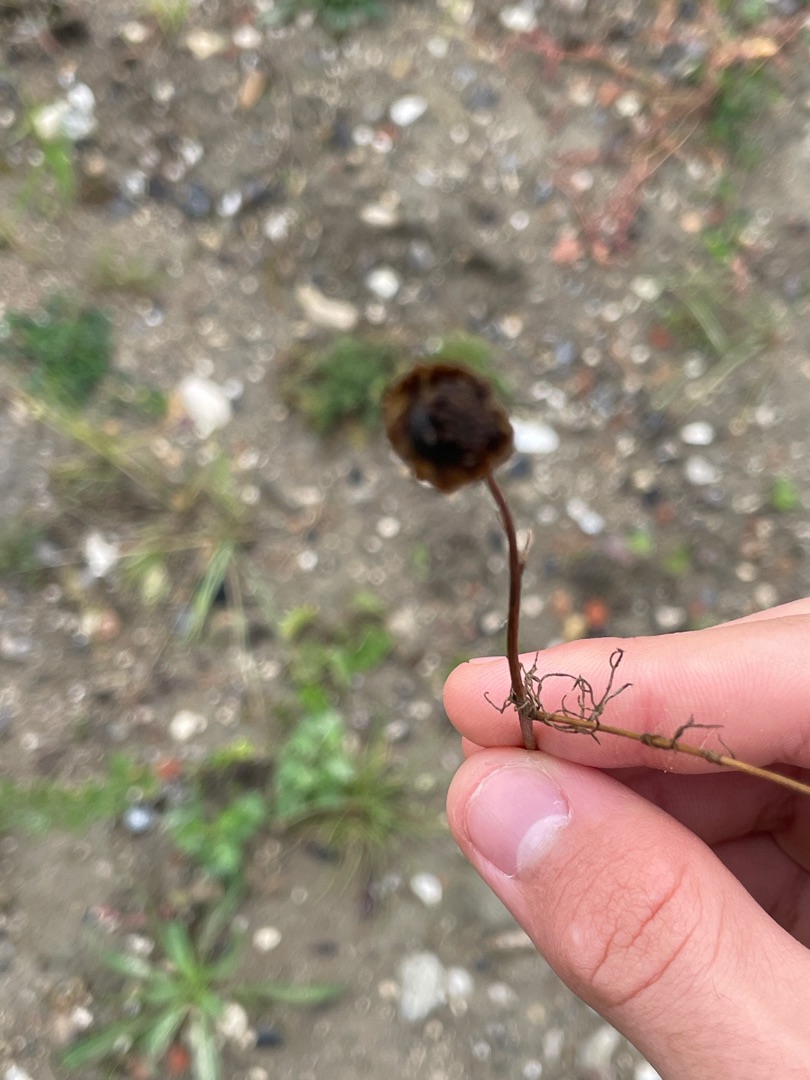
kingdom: Plantae
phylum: Tracheophyta
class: Magnoliopsida
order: Asterales
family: Asteraceae
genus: Tripleurospermum
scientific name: Tripleurospermum inodorum
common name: Lugtløs kamille
